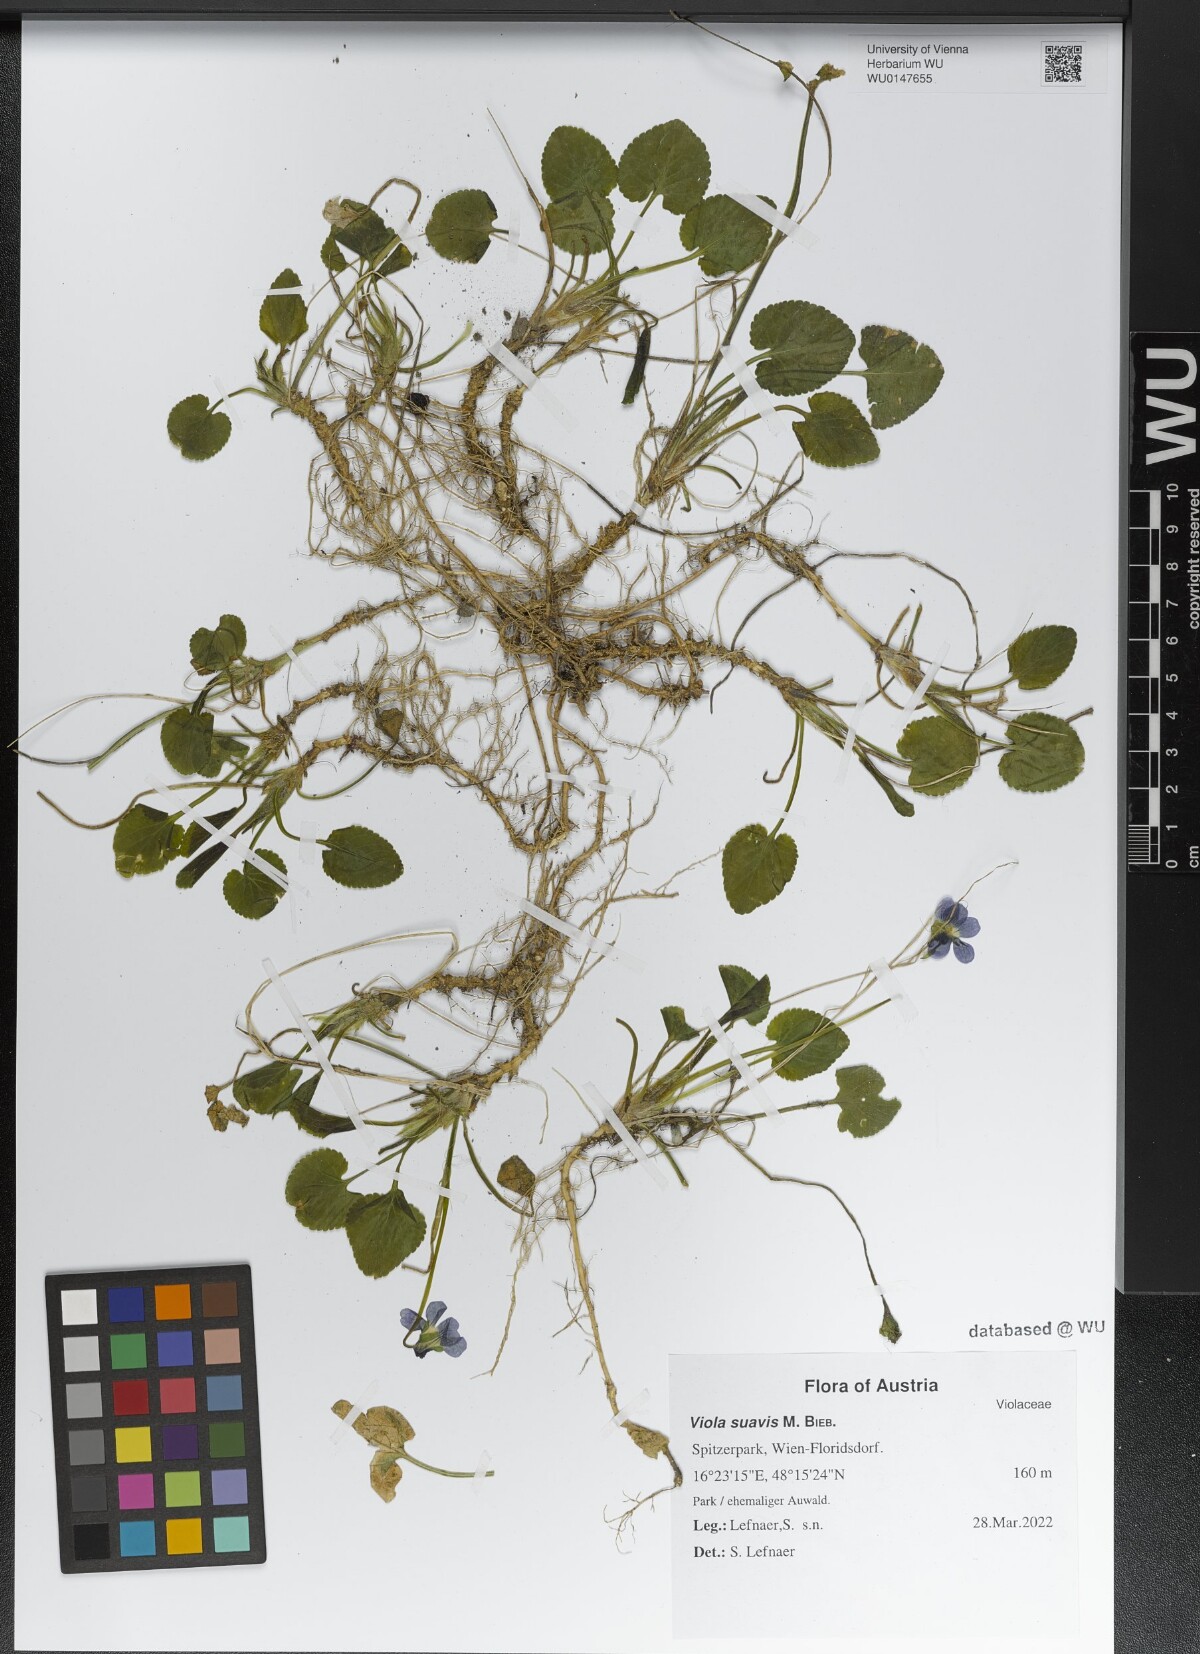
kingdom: Plantae
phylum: Tracheophyta
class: Magnoliopsida
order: Malpighiales
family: Violaceae
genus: Viola
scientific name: Viola suavis
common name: Russian violet
